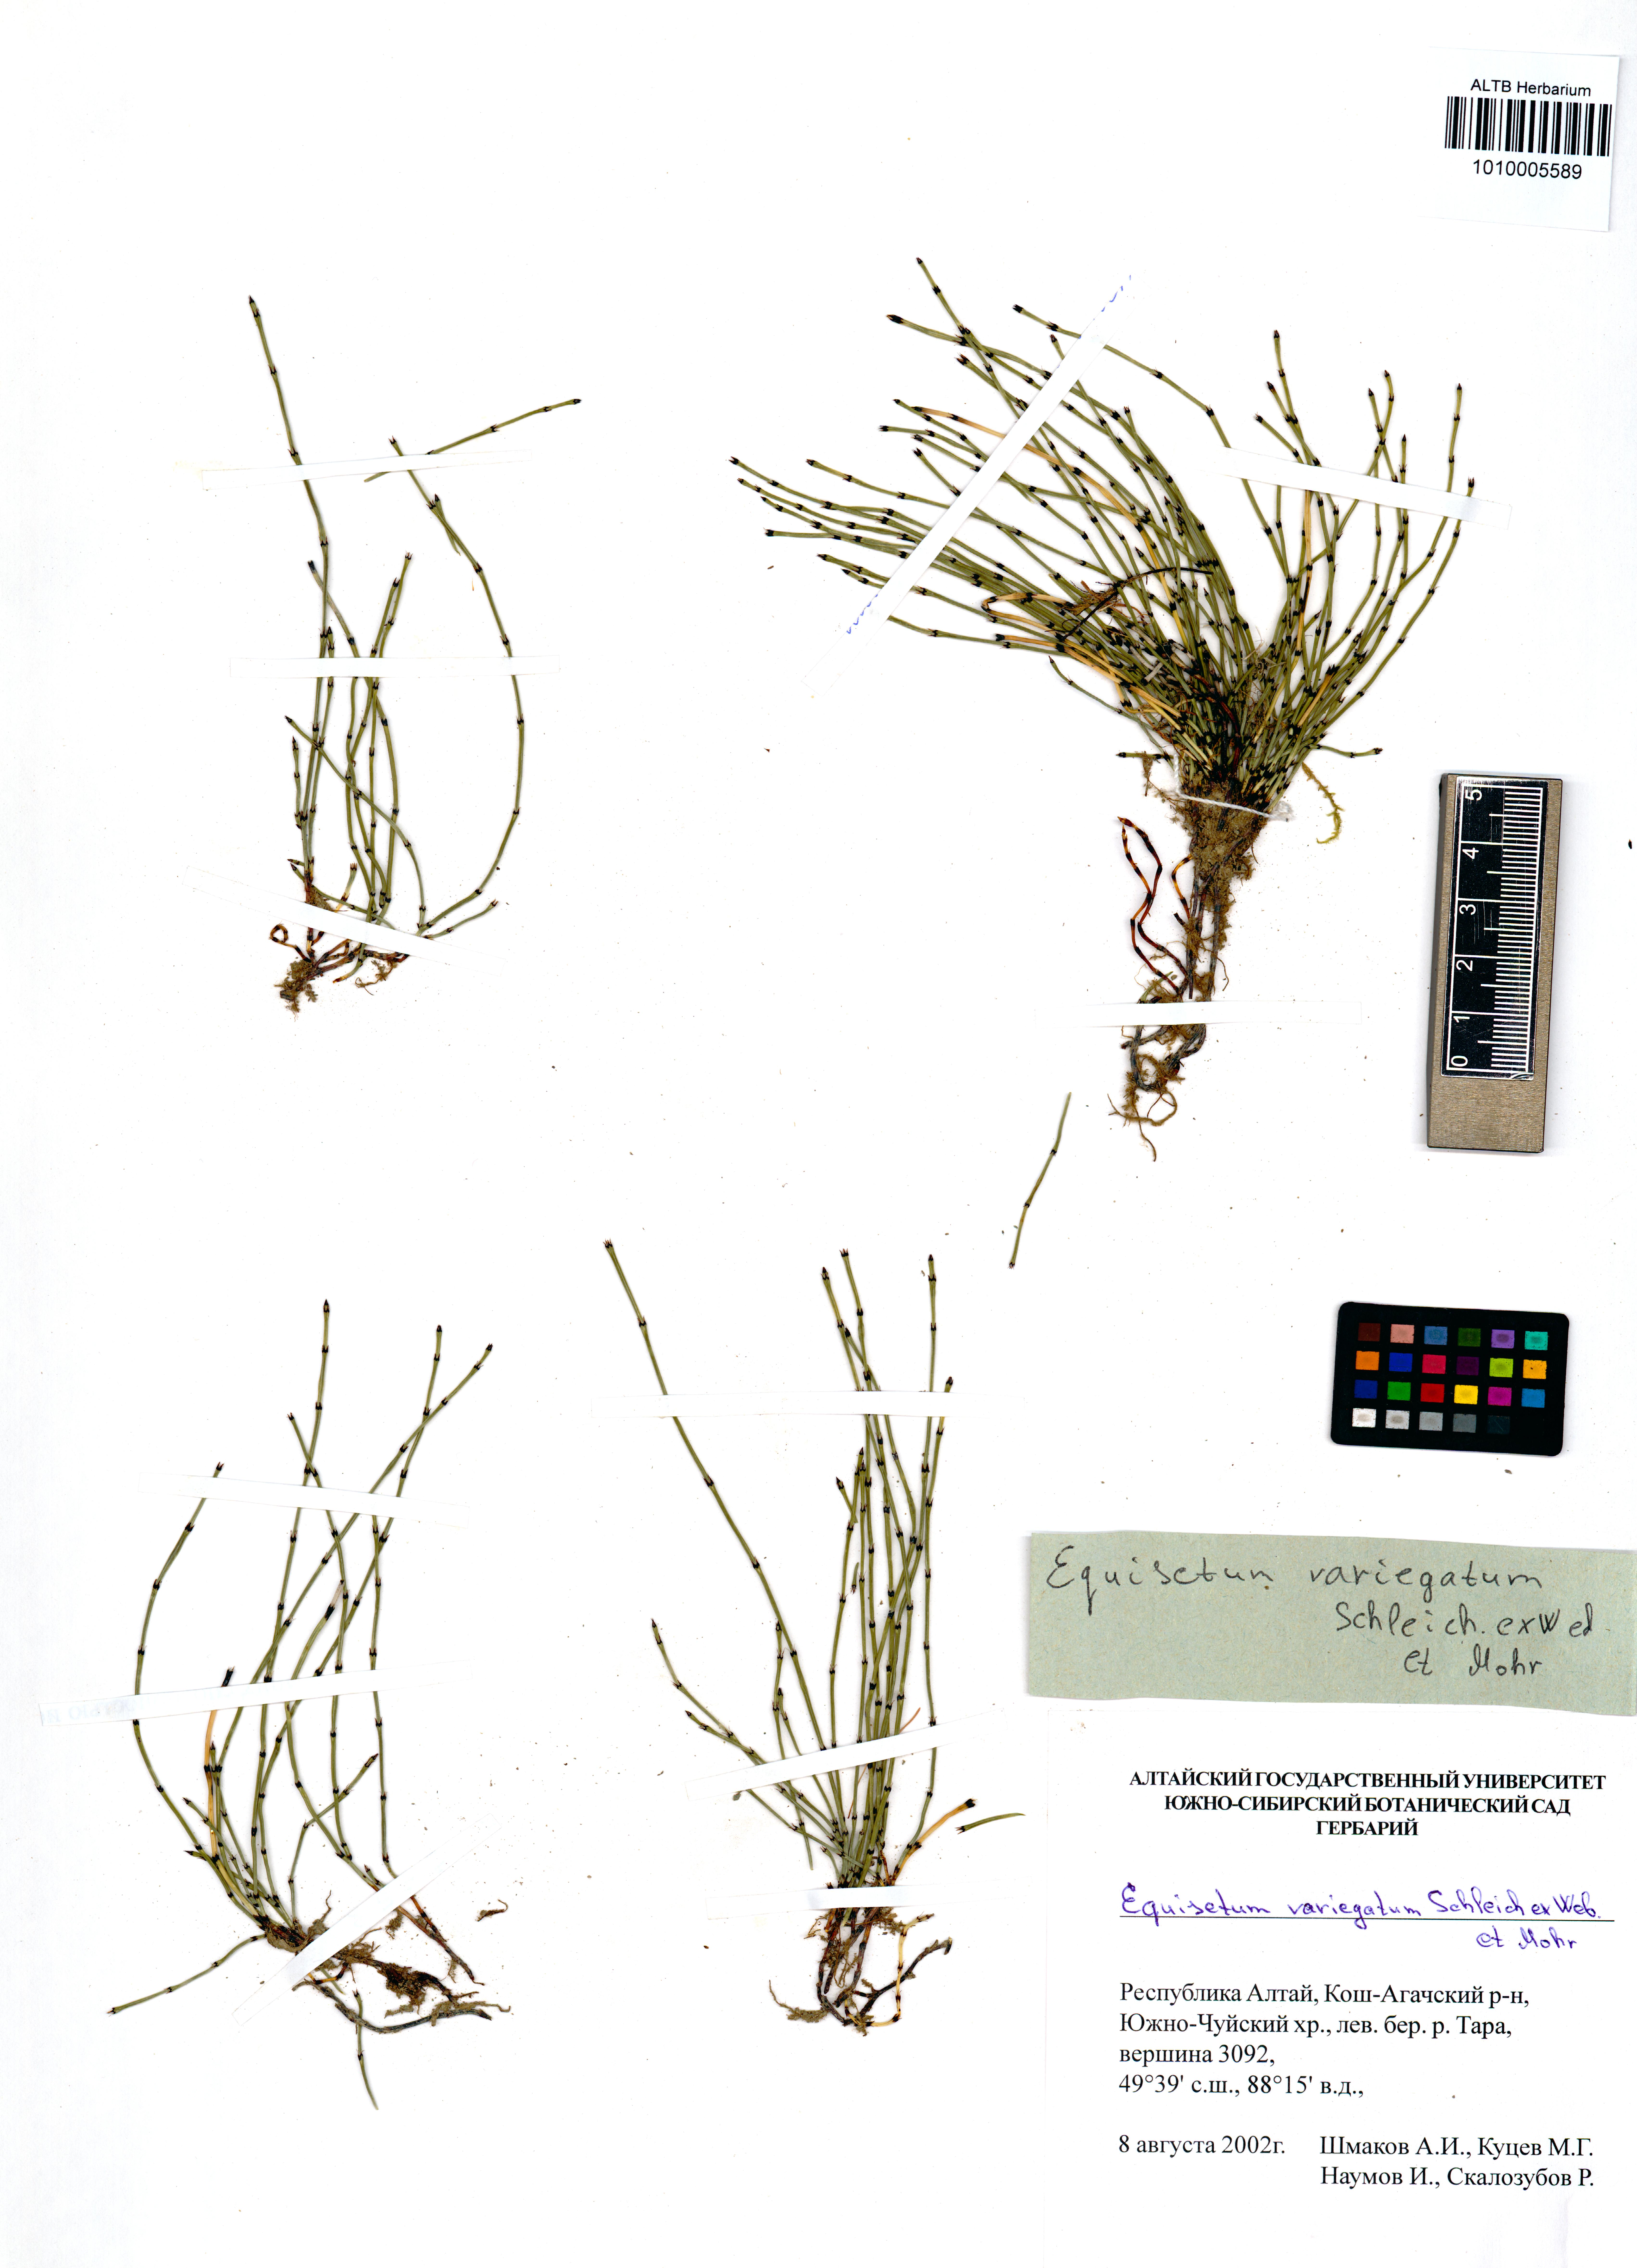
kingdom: Plantae
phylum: Tracheophyta
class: Polypodiopsida
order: Equisetales
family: Equisetaceae
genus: Equisetum
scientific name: Equisetum variegatum
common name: Variegated horsetail
